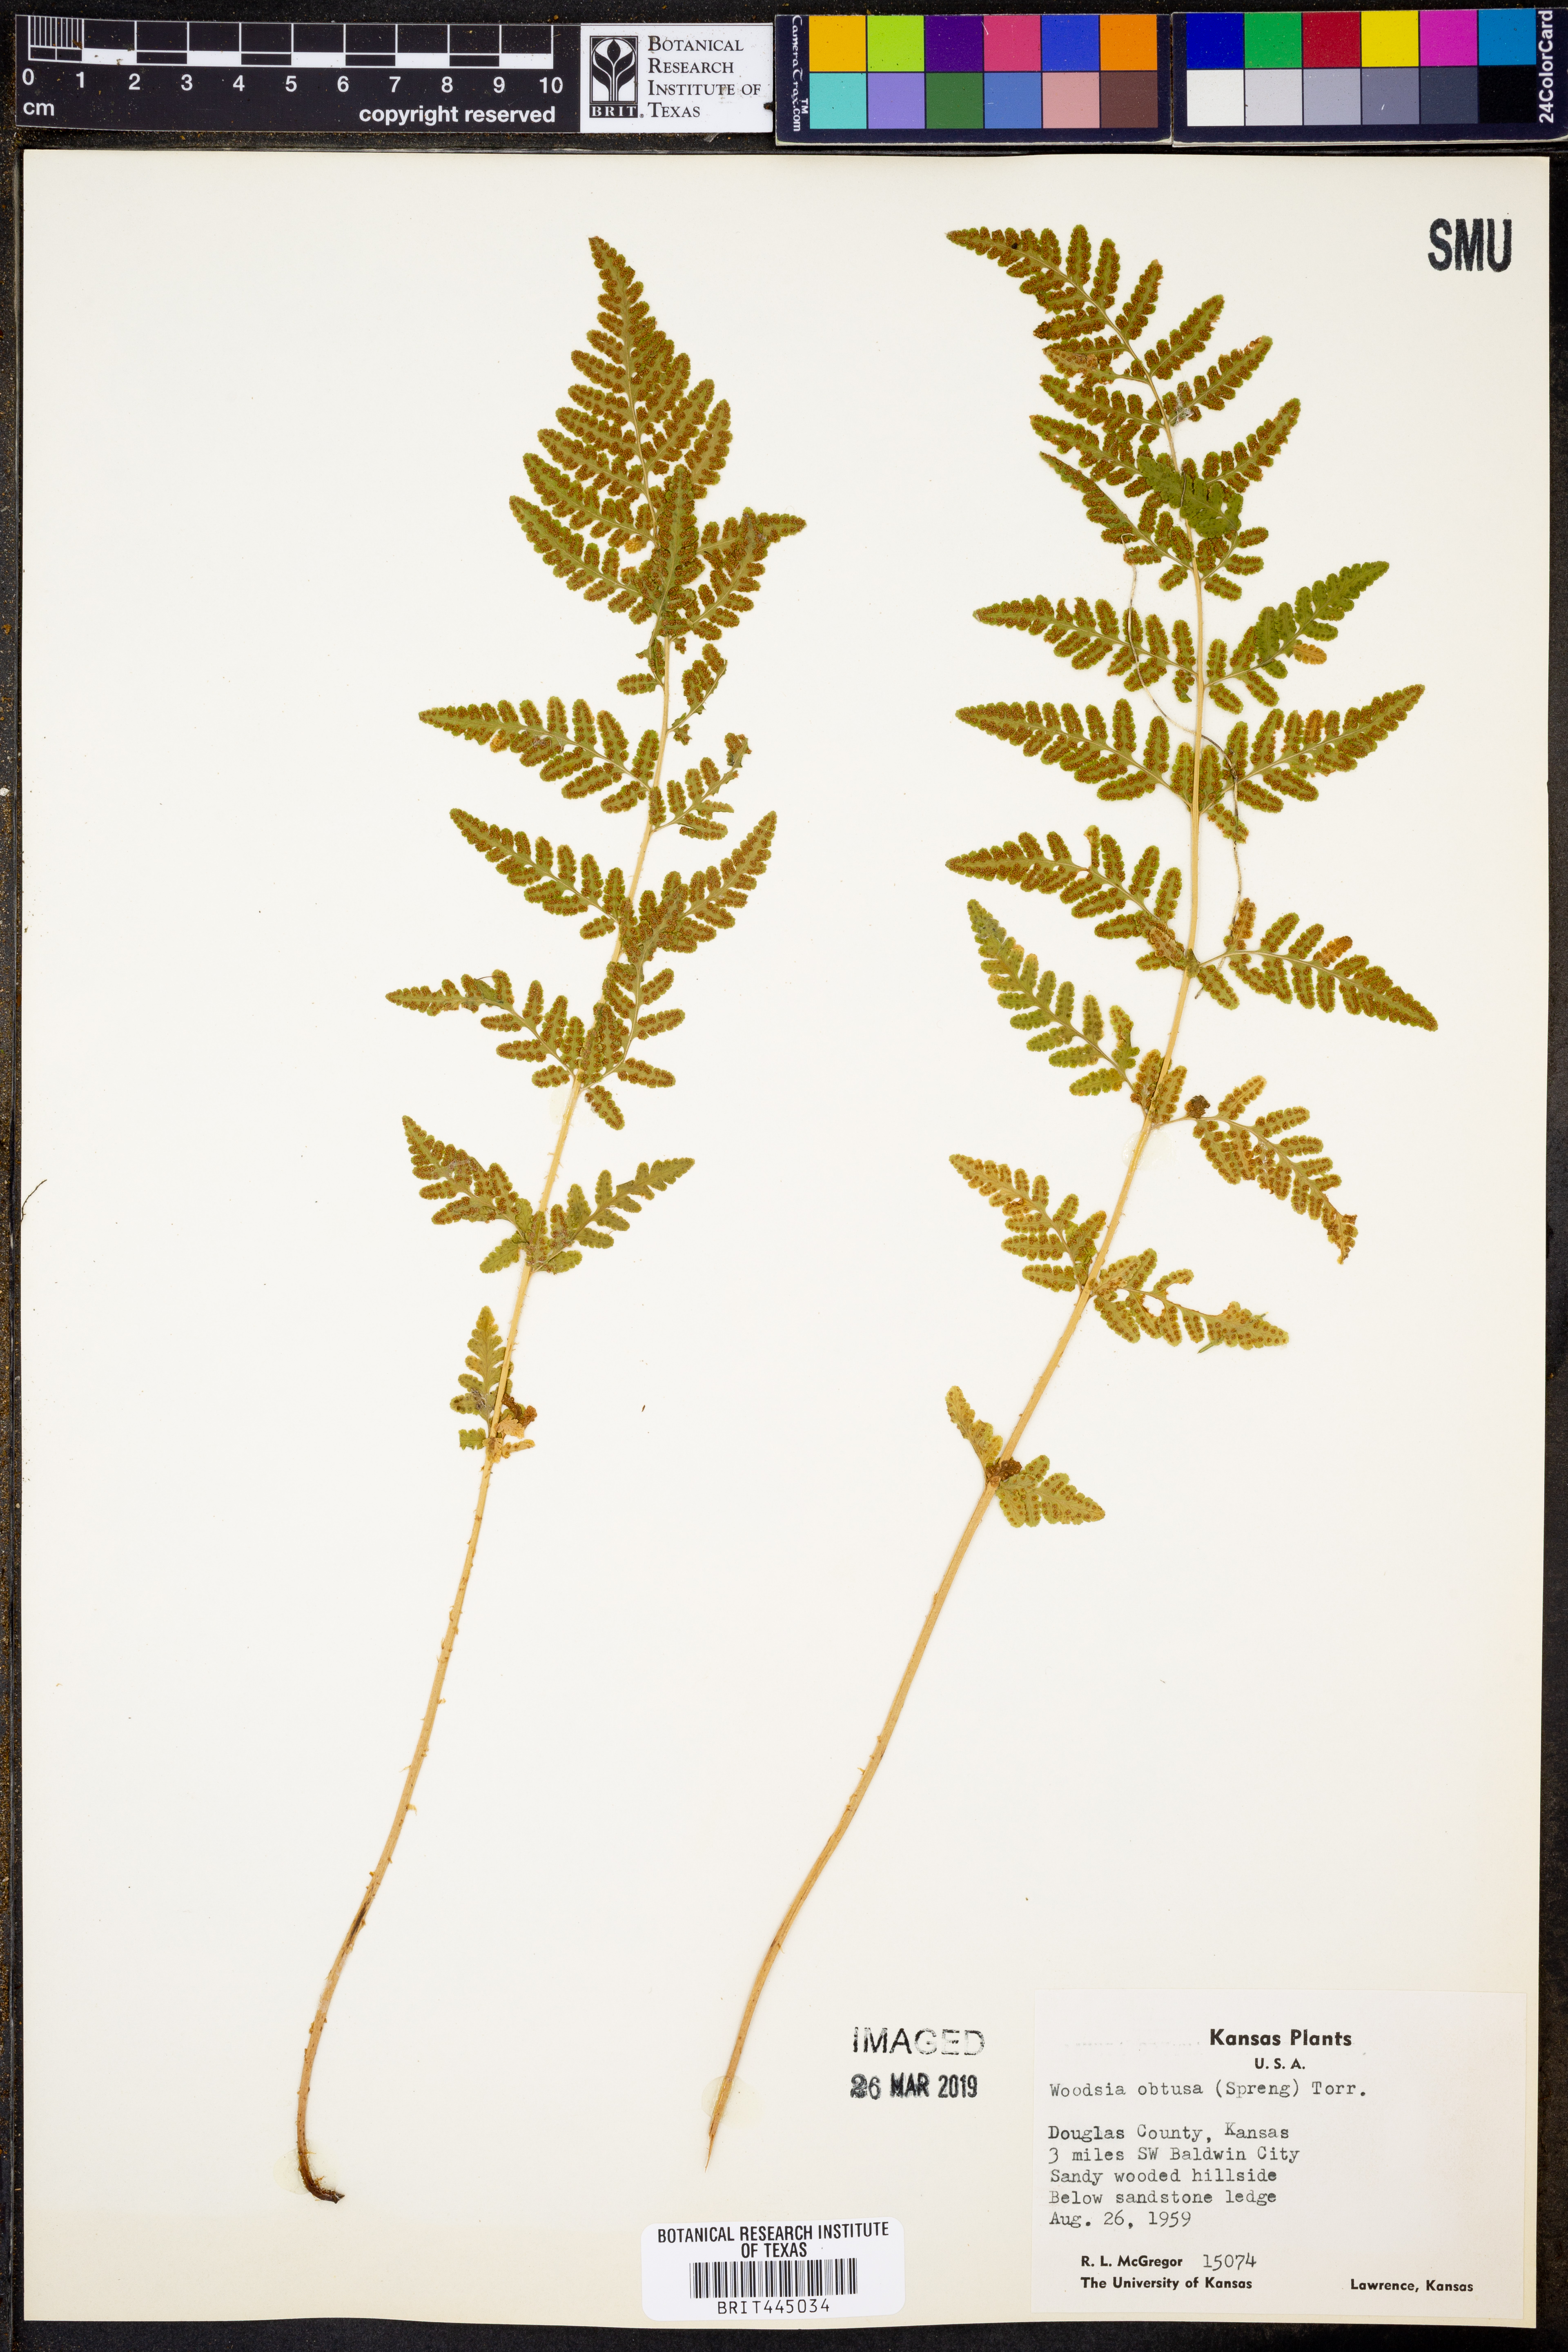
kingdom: Plantae
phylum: Tracheophyta
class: Polypodiopsida
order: Polypodiales
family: Woodsiaceae
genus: Physematium
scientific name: Physematium obtusum
